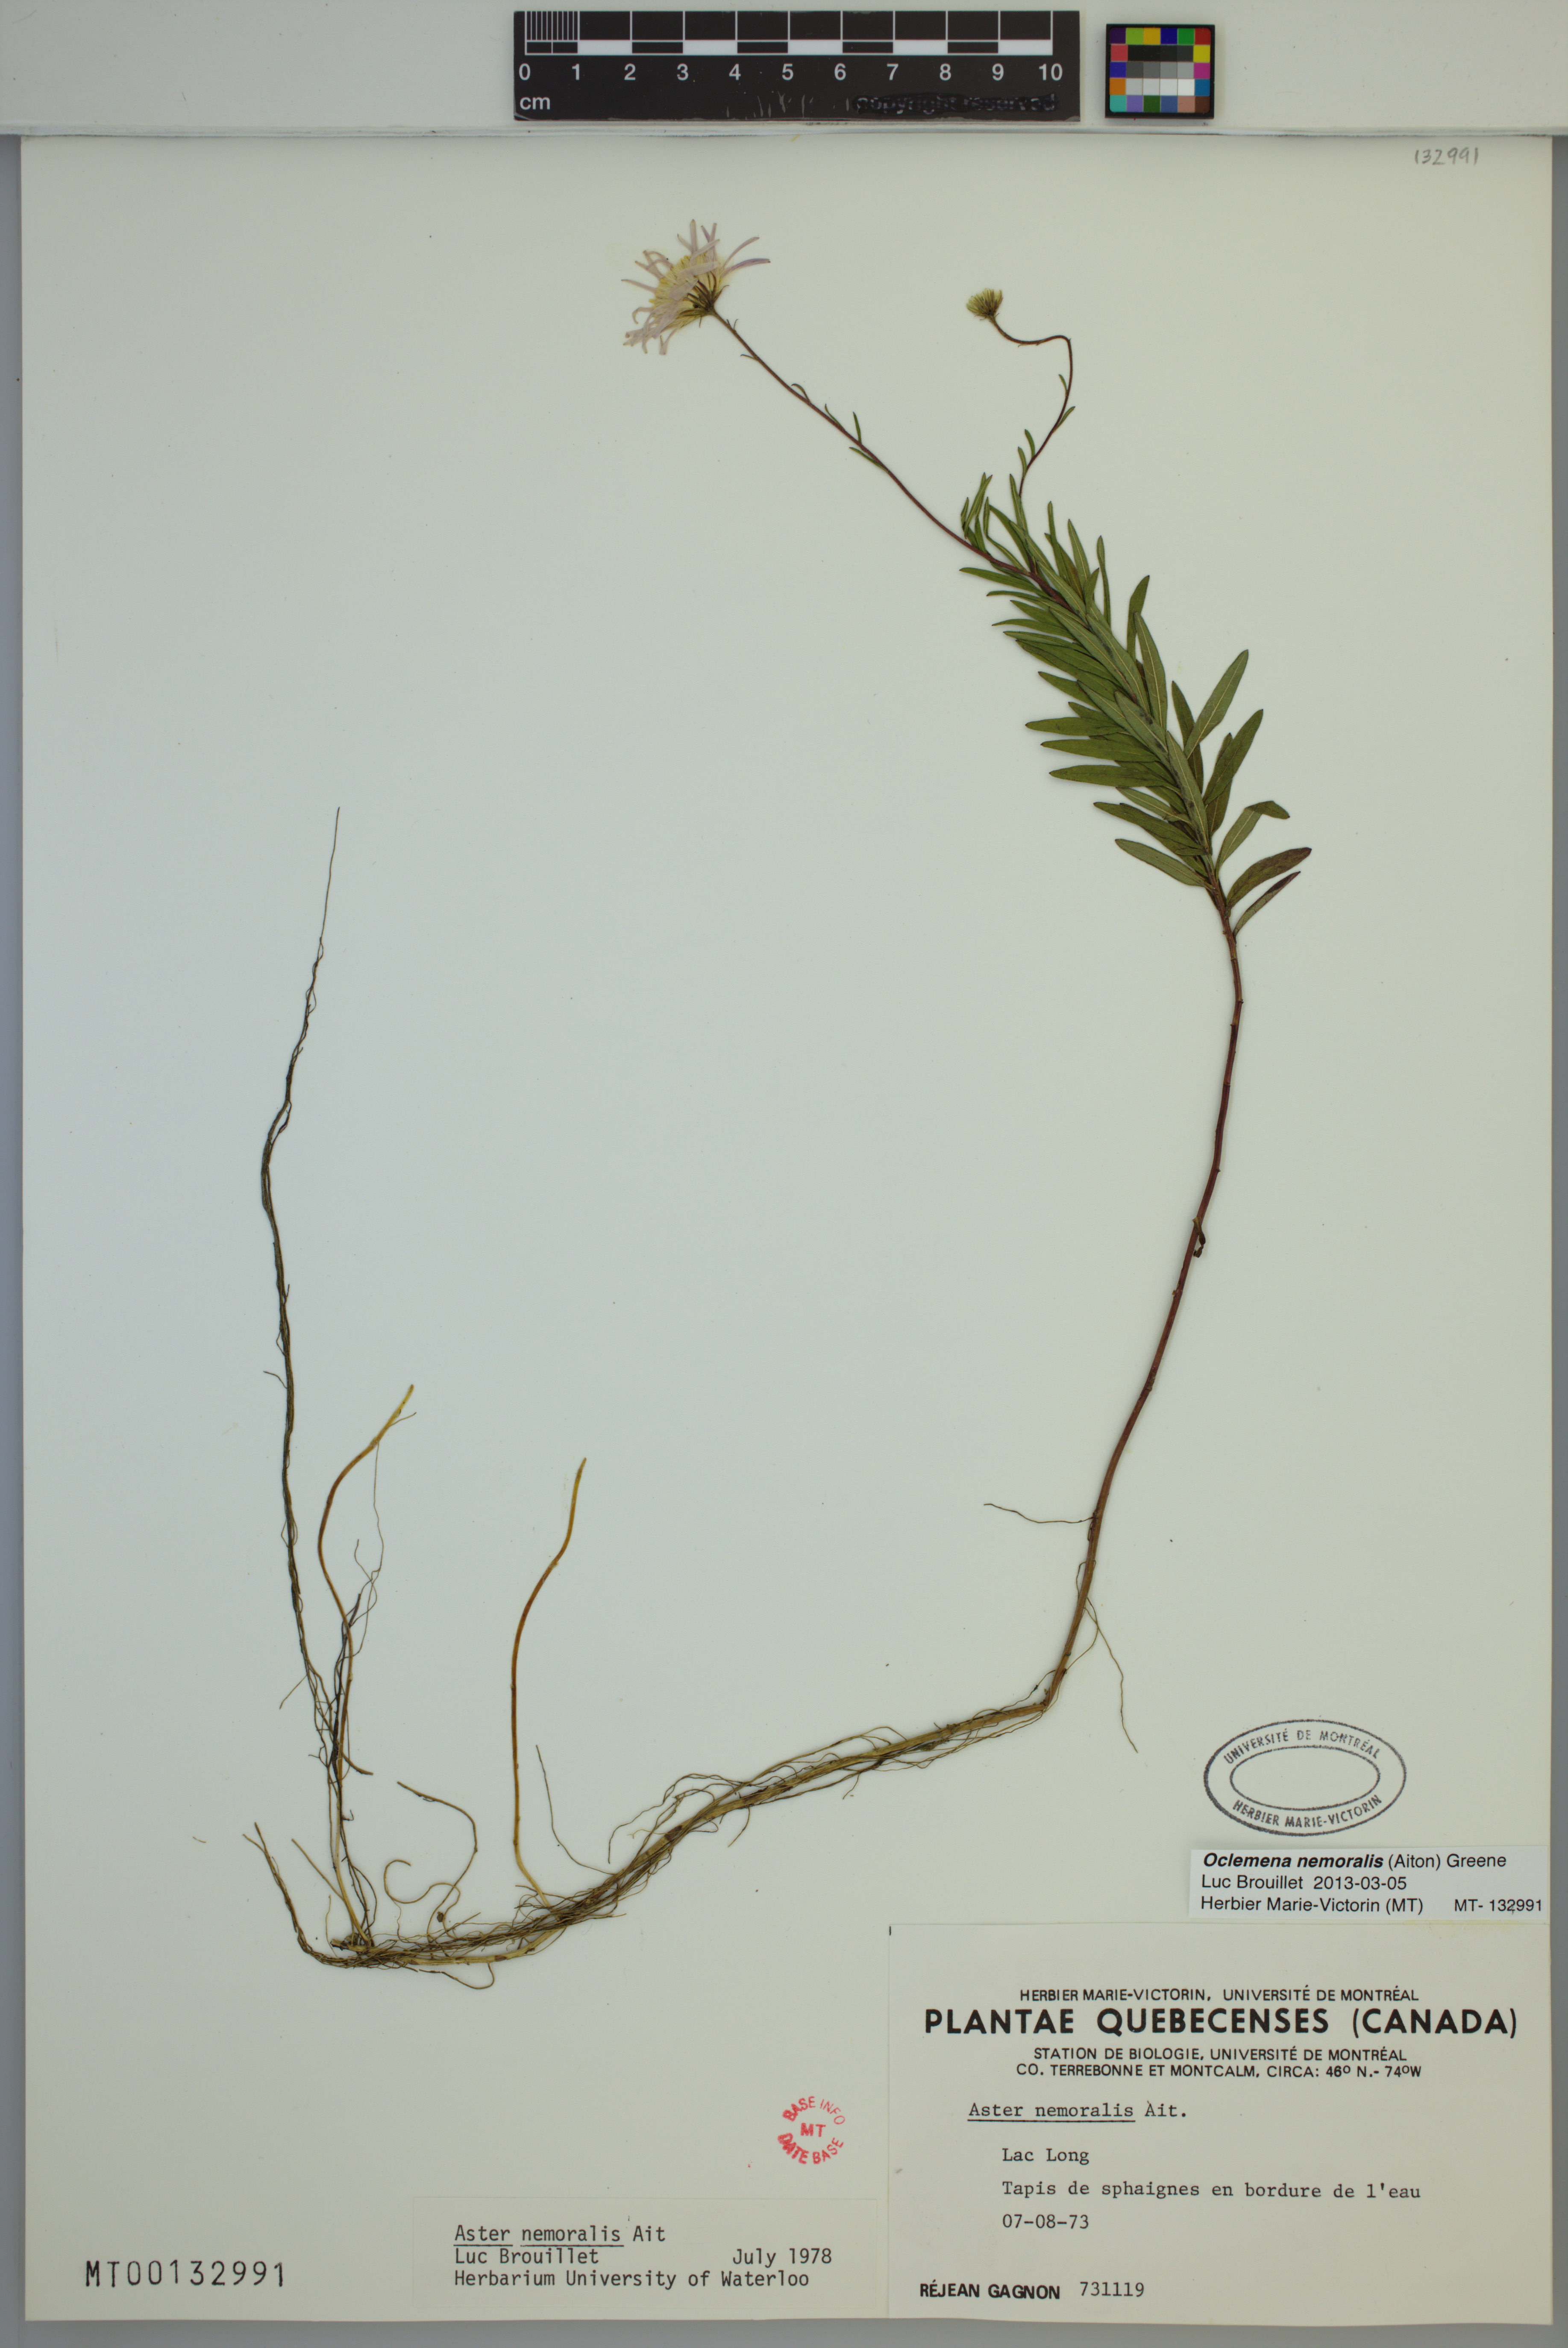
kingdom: Plantae
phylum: Tracheophyta
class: Magnoliopsida
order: Asterales
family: Asteraceae
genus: Oclemena
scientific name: Oclemena nemoralis
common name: Bog aster
